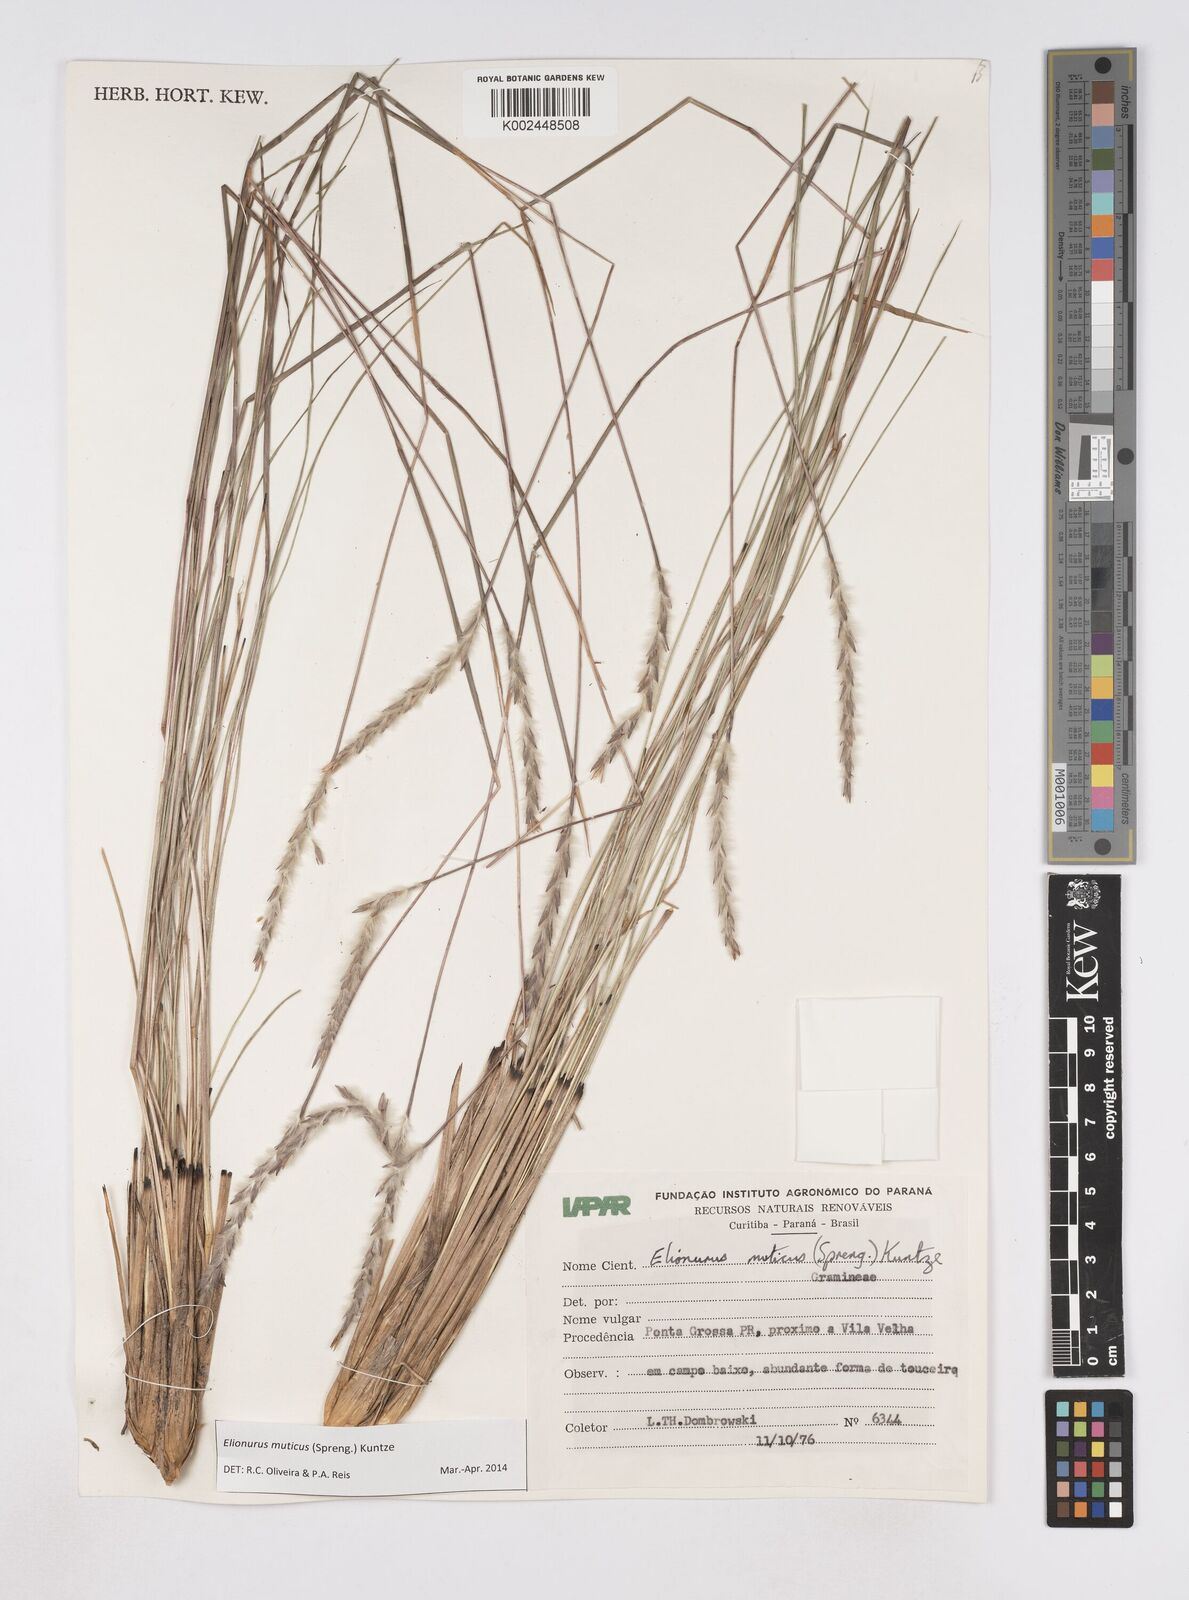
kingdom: Plantae
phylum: Tracheophyta
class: Liliopsida
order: Poales
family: Poaceae
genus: Elionurus
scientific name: Elionurus muticus
